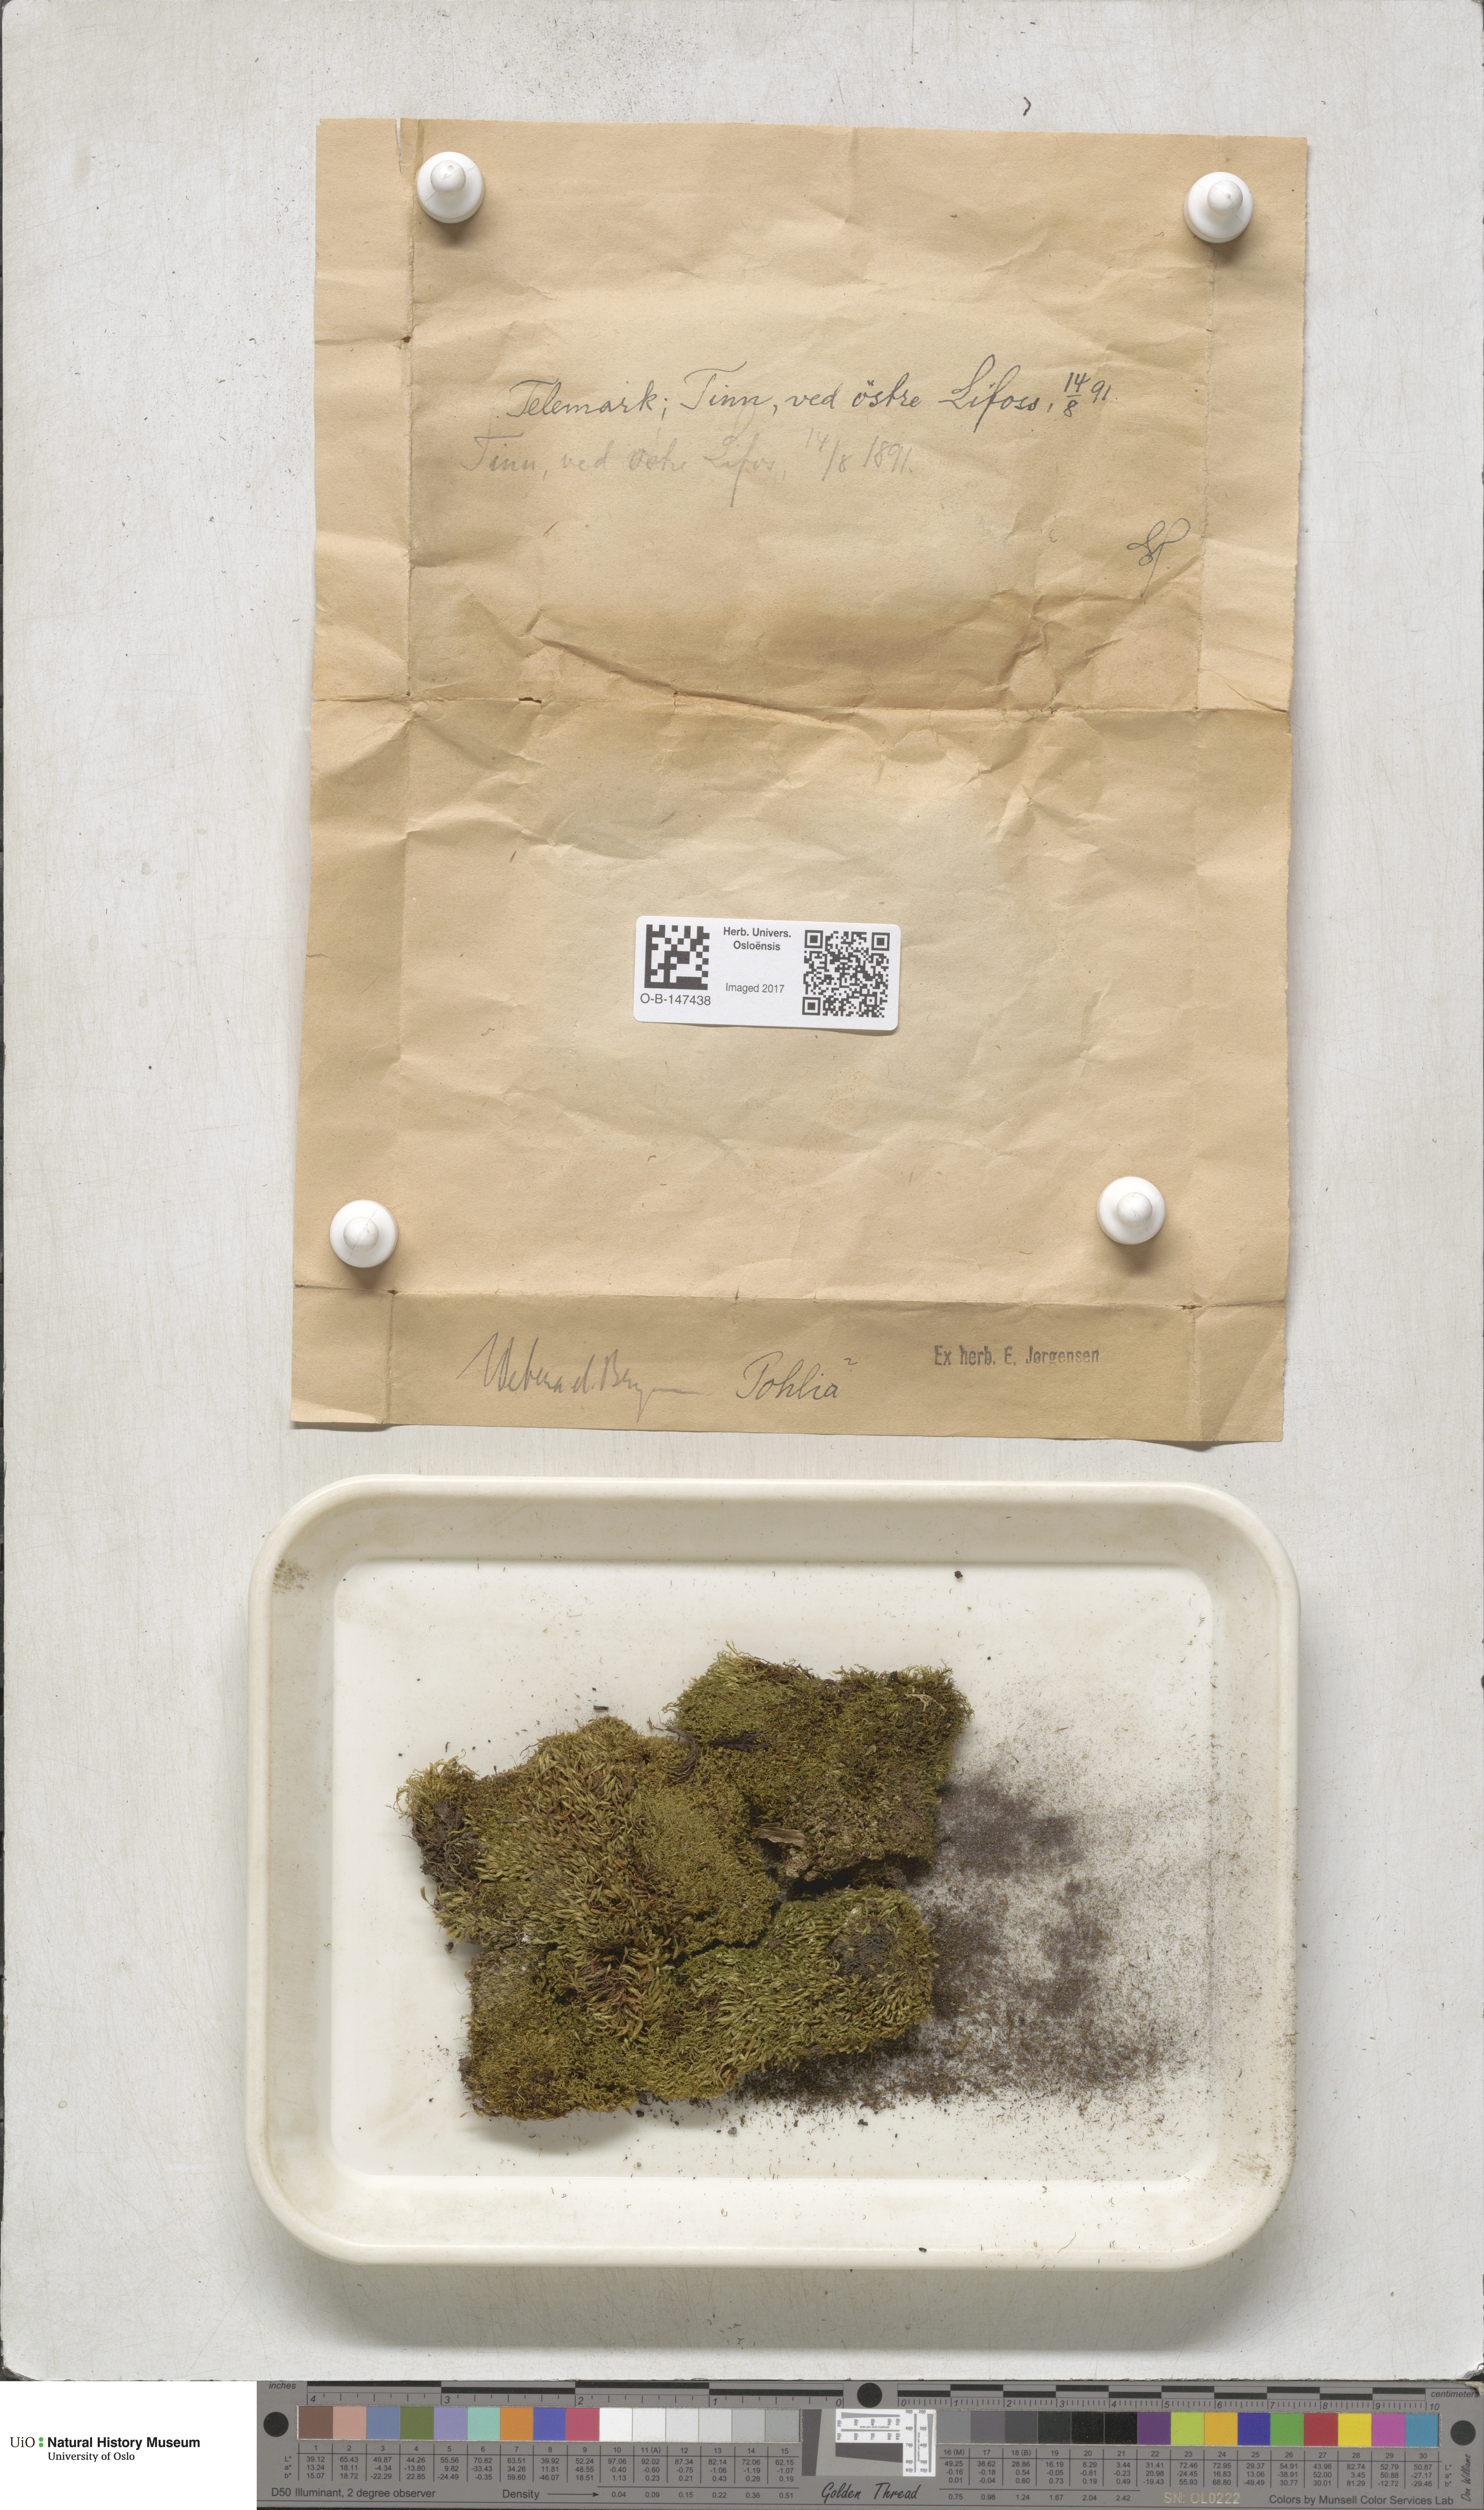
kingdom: Plantae
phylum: Bryophyta
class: Bryopsida
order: Bryales
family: Mniaceae
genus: Pohlia
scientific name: Pohlia
